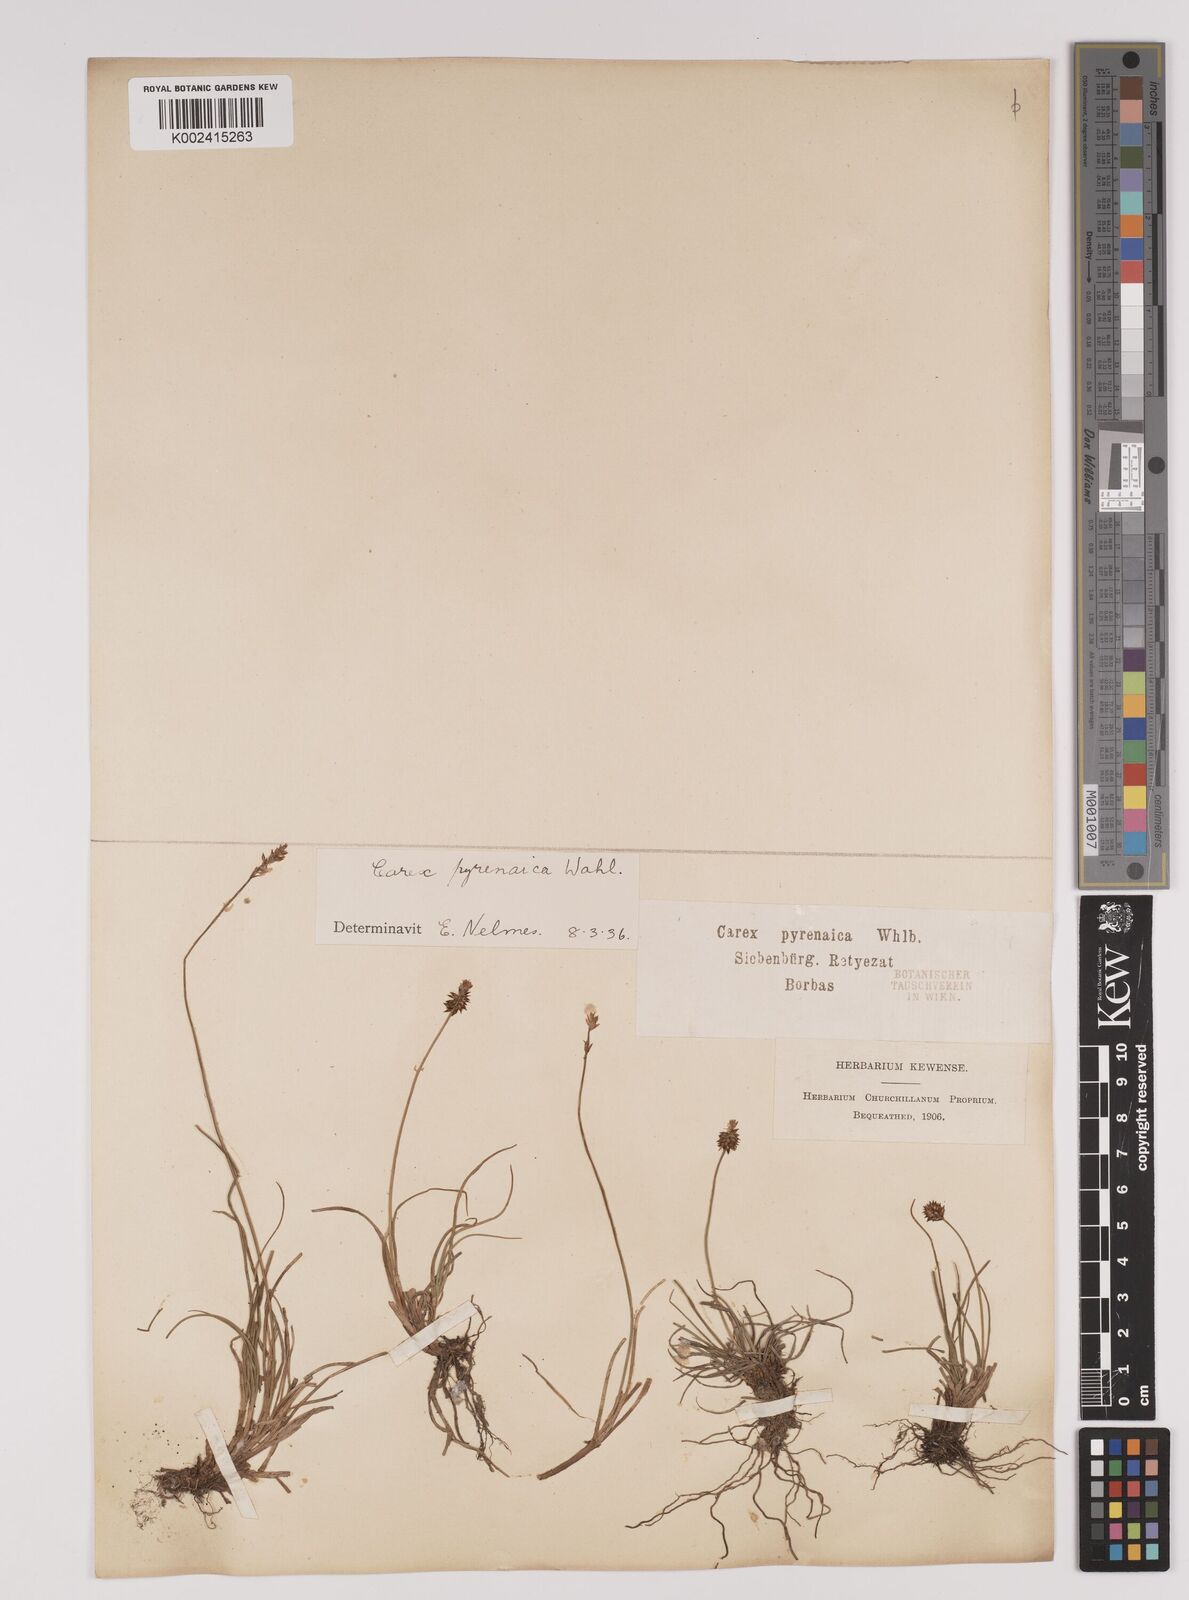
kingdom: Plantae
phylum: Tracheophyta
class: Liliopsida
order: Poales
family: Cyperaceae
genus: Carex
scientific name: Carex pyrenaica
